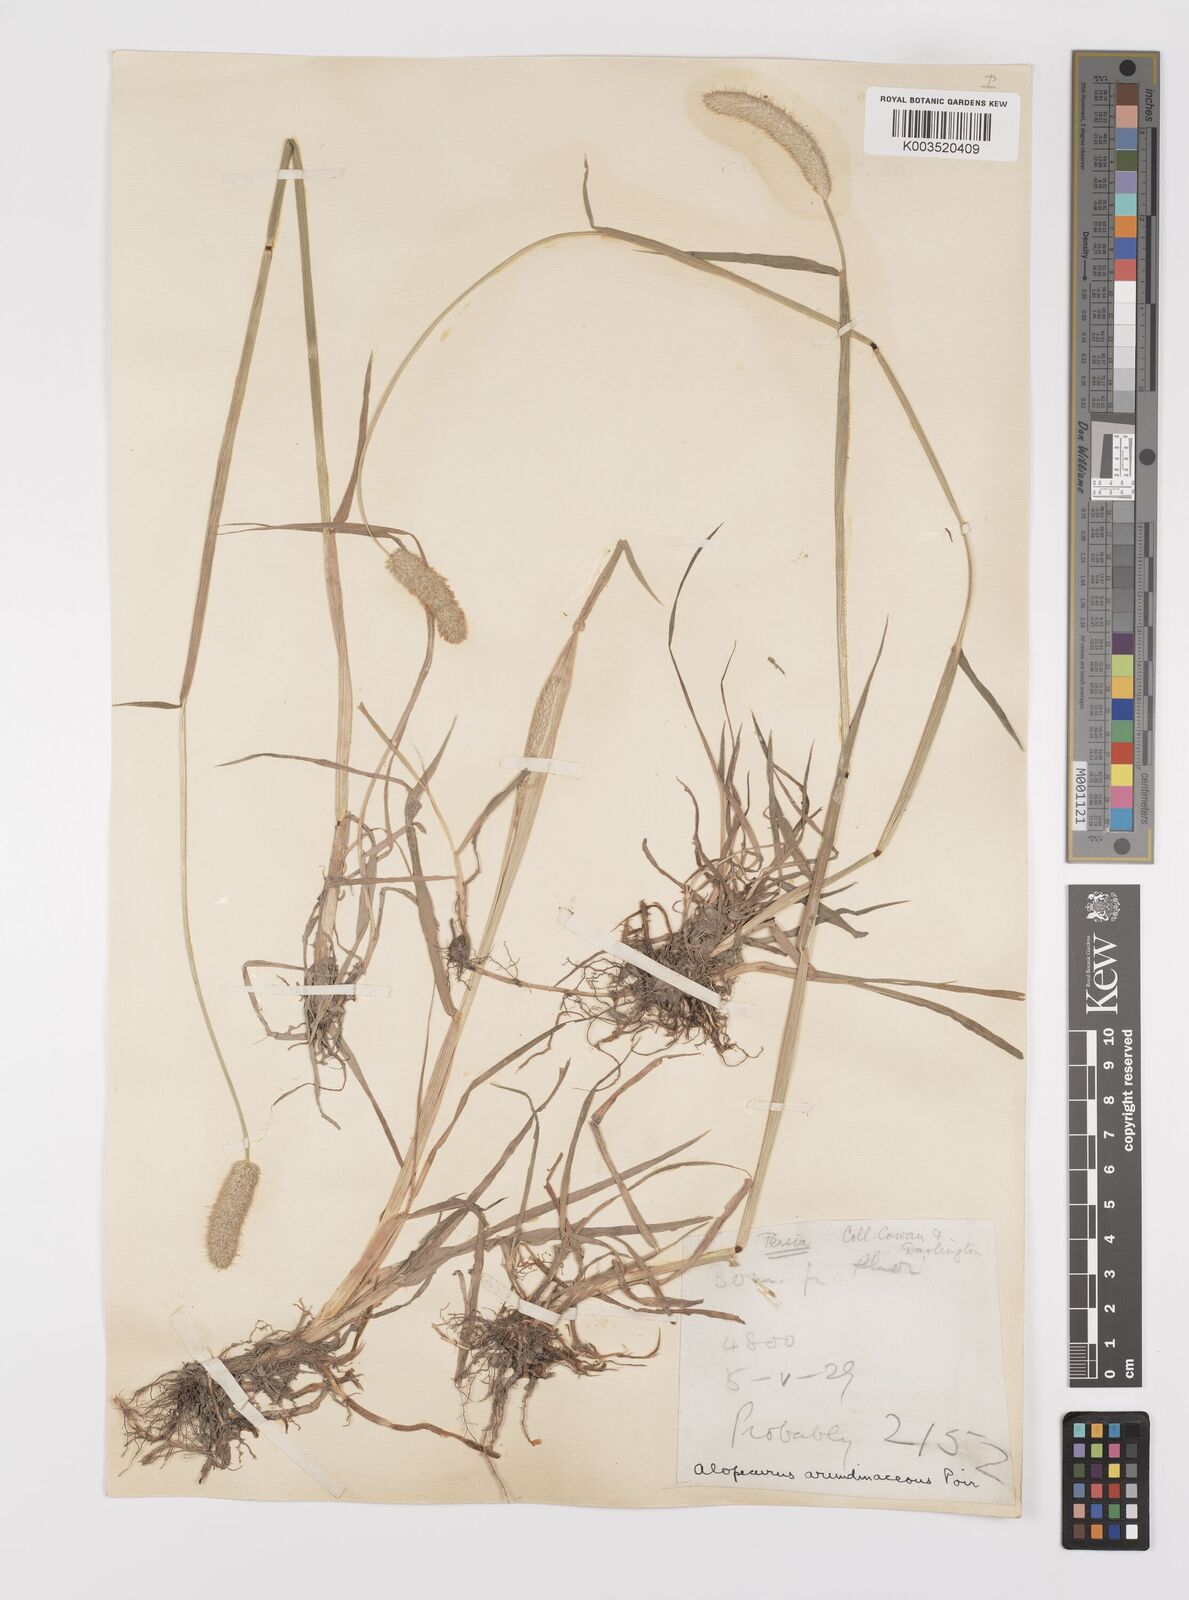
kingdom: Plantae
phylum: Tracheophyta
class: Liliopsida
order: Poales
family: Poaceae
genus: Alopecurus
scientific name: Alopecurus arundinaceus
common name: Creeping meadow foxtail
